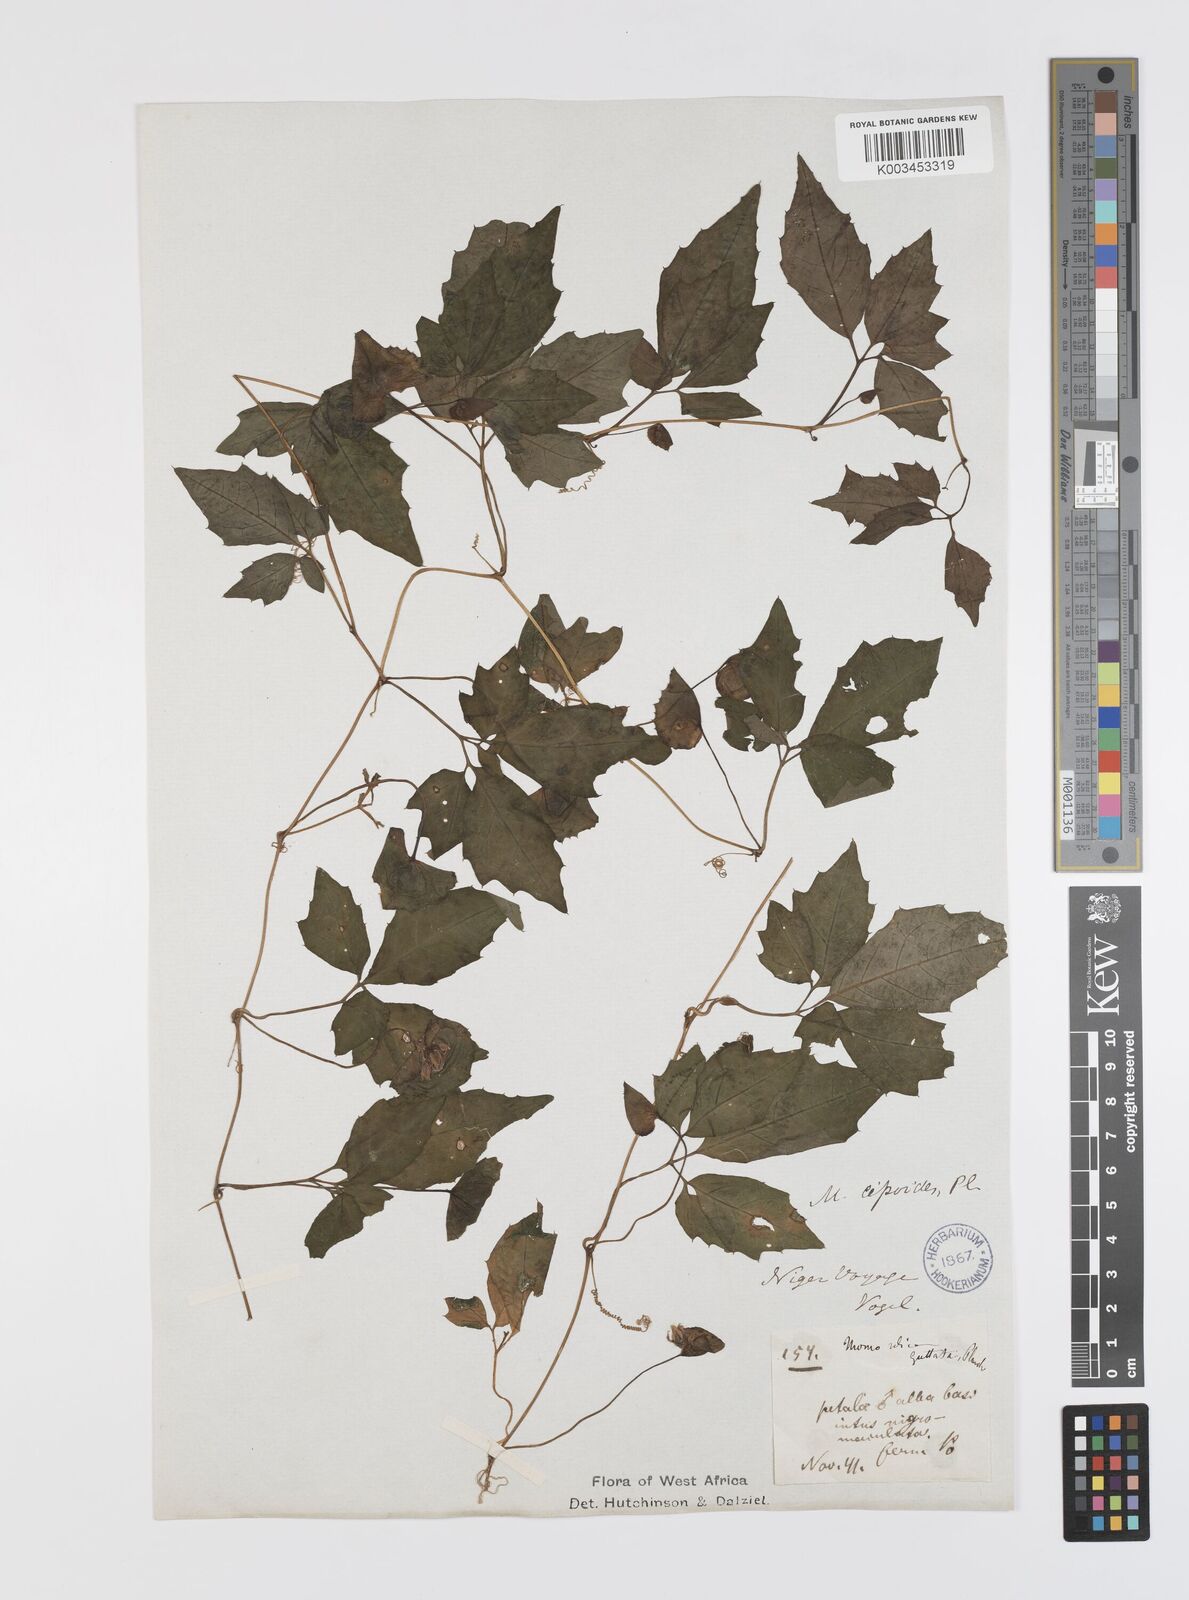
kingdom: Plantae
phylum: Tracheophyta
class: Magnoliopsida
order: Cucurbitales
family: Cucurbitaceae
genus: Momordica
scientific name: Momordica cissoides
